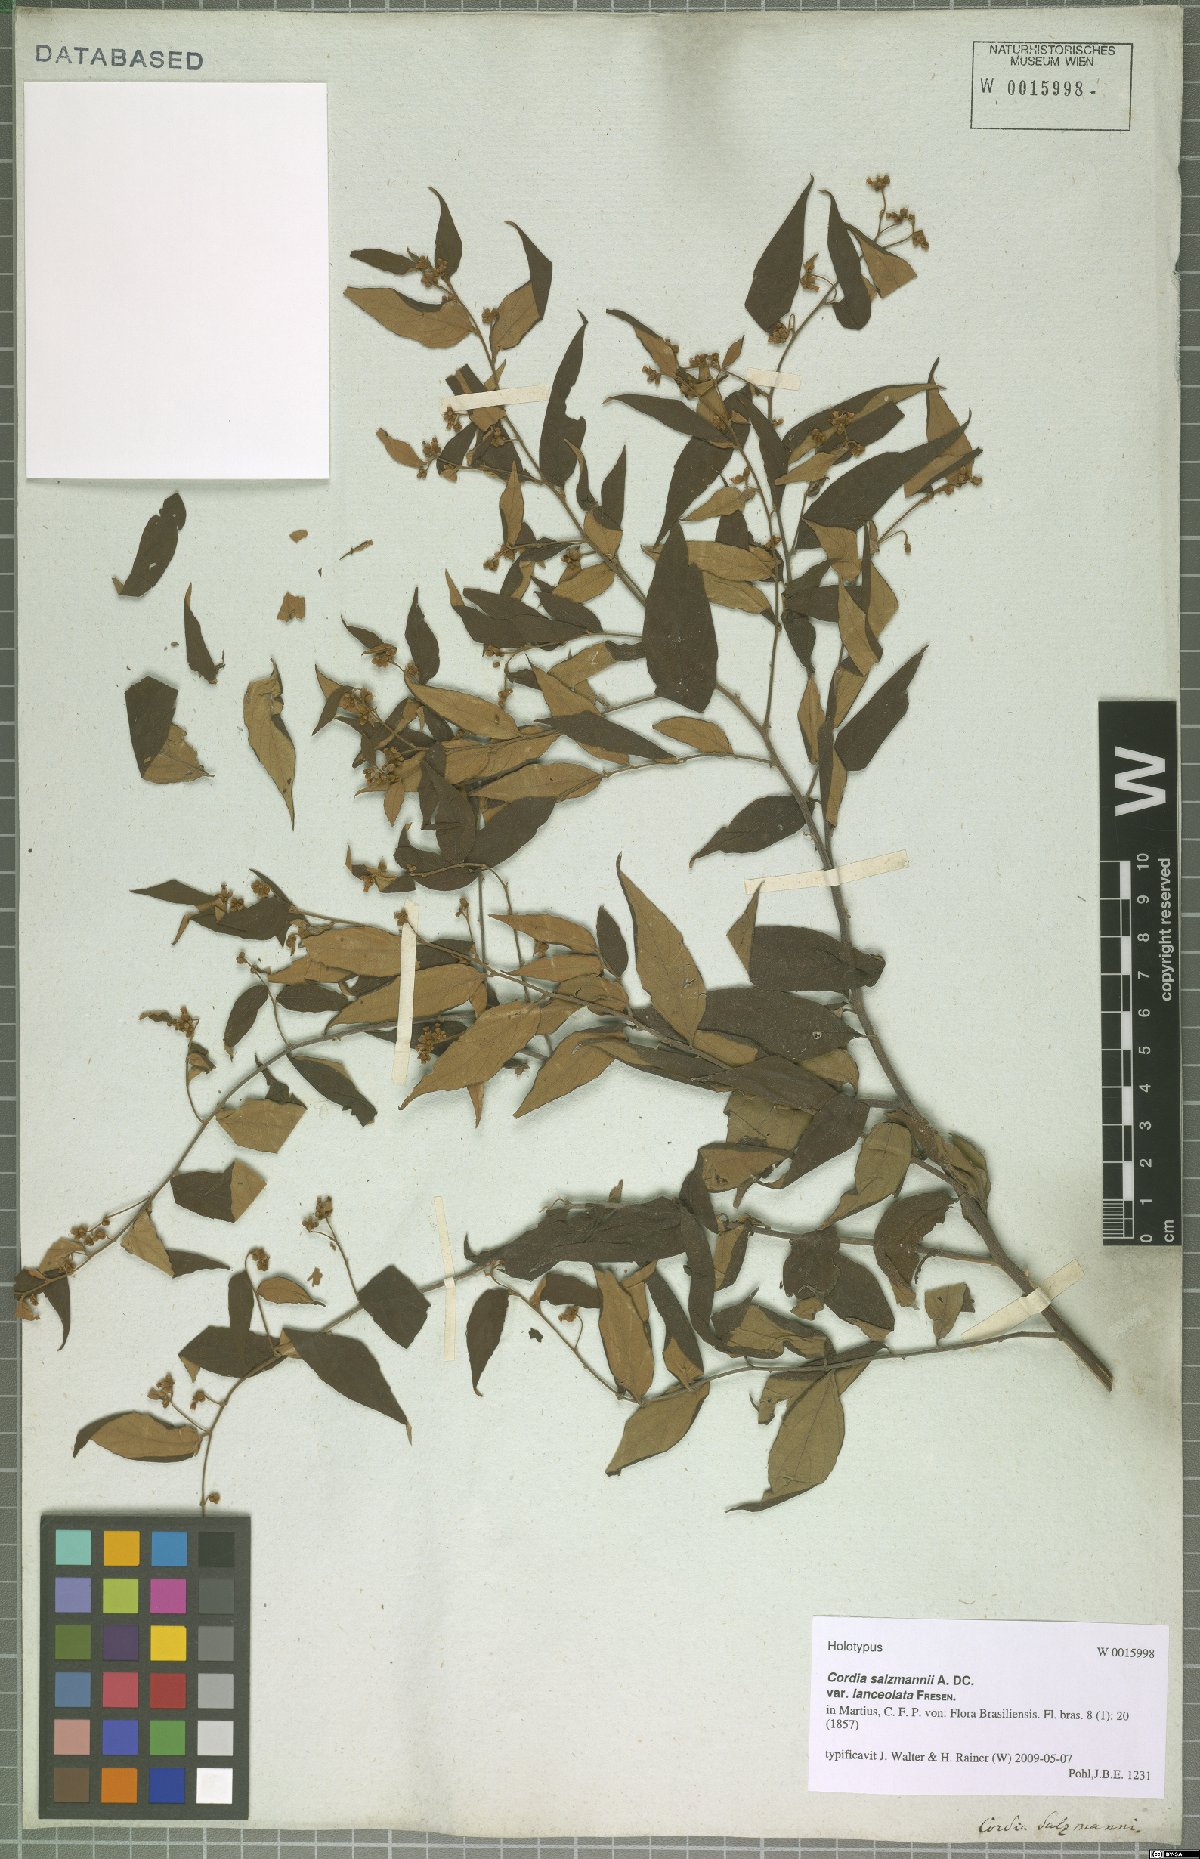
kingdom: Plantae
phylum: Tracheophyta
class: Magnoliopsida
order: Boraginales
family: Cordiaceae
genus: Varronia
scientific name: Varronia polycephala
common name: Black-sage
